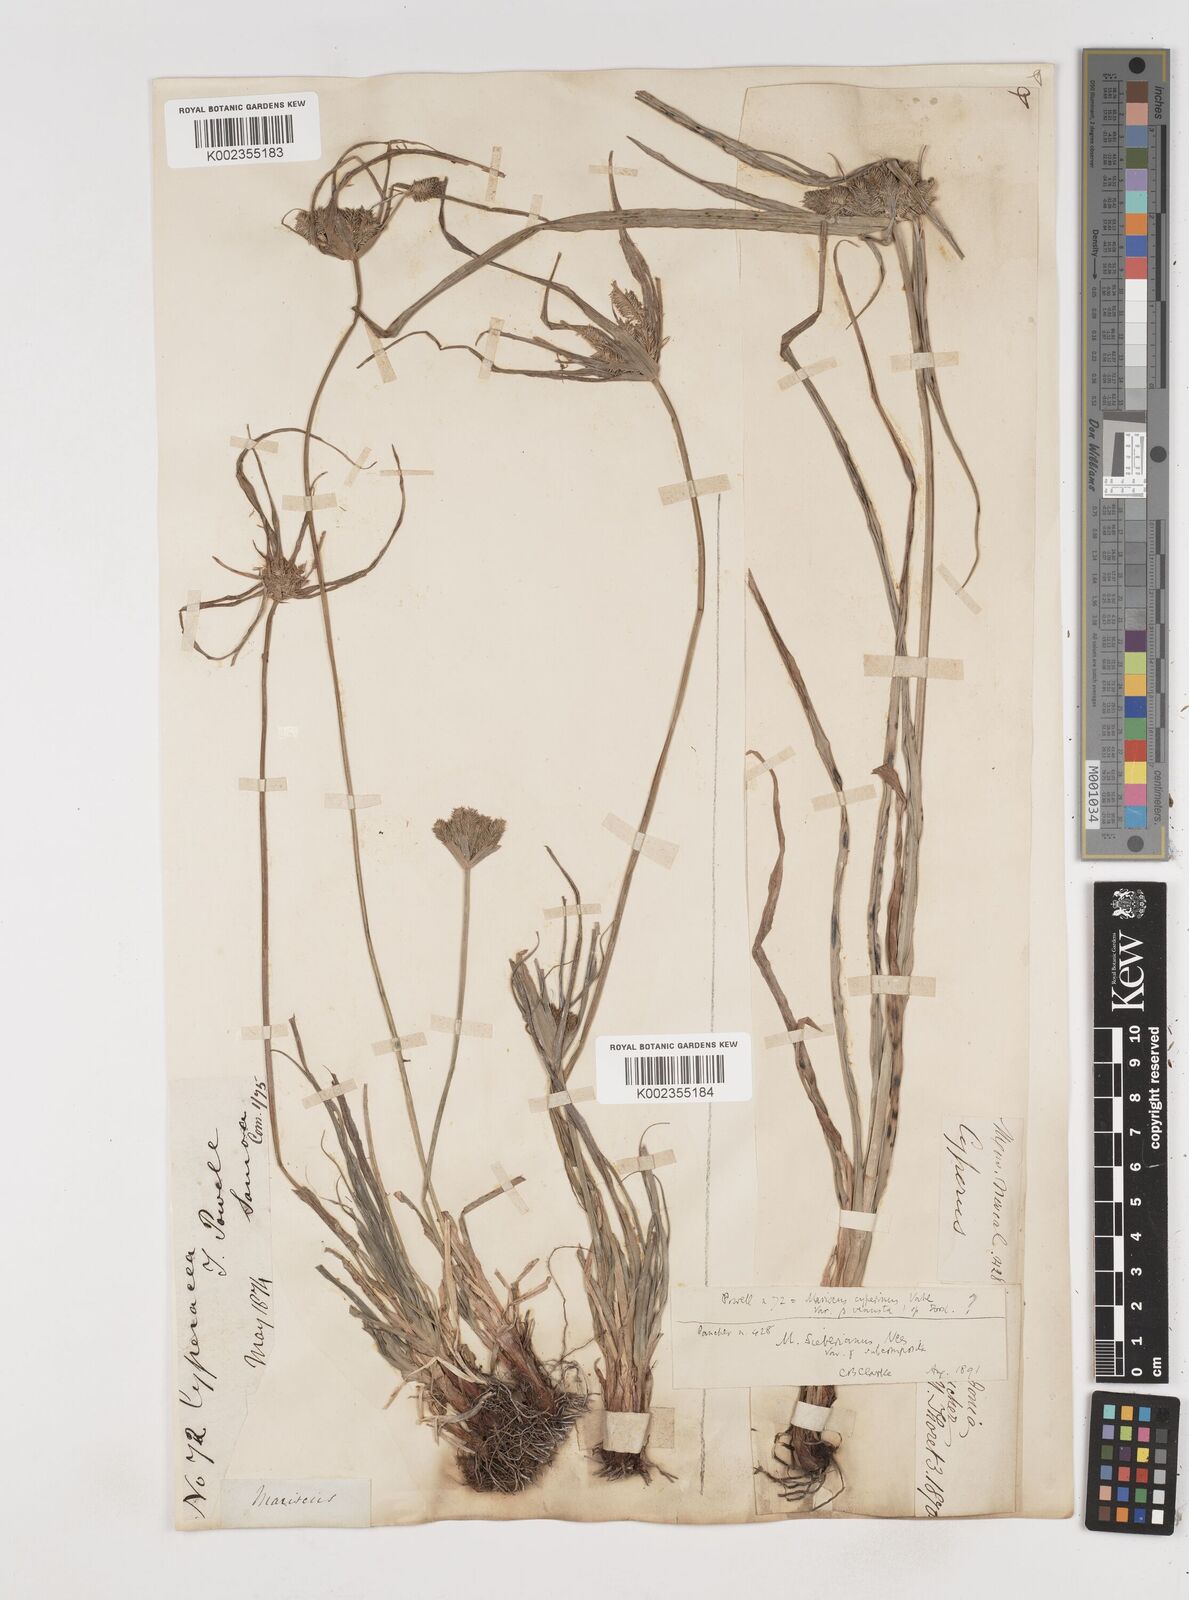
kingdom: Plantae
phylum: Tracheophyta
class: Liliopsida
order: Poales
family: Cyperaceae
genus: Cyperus
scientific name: Cyperus cyperoides
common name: Pacific island flat sedge
